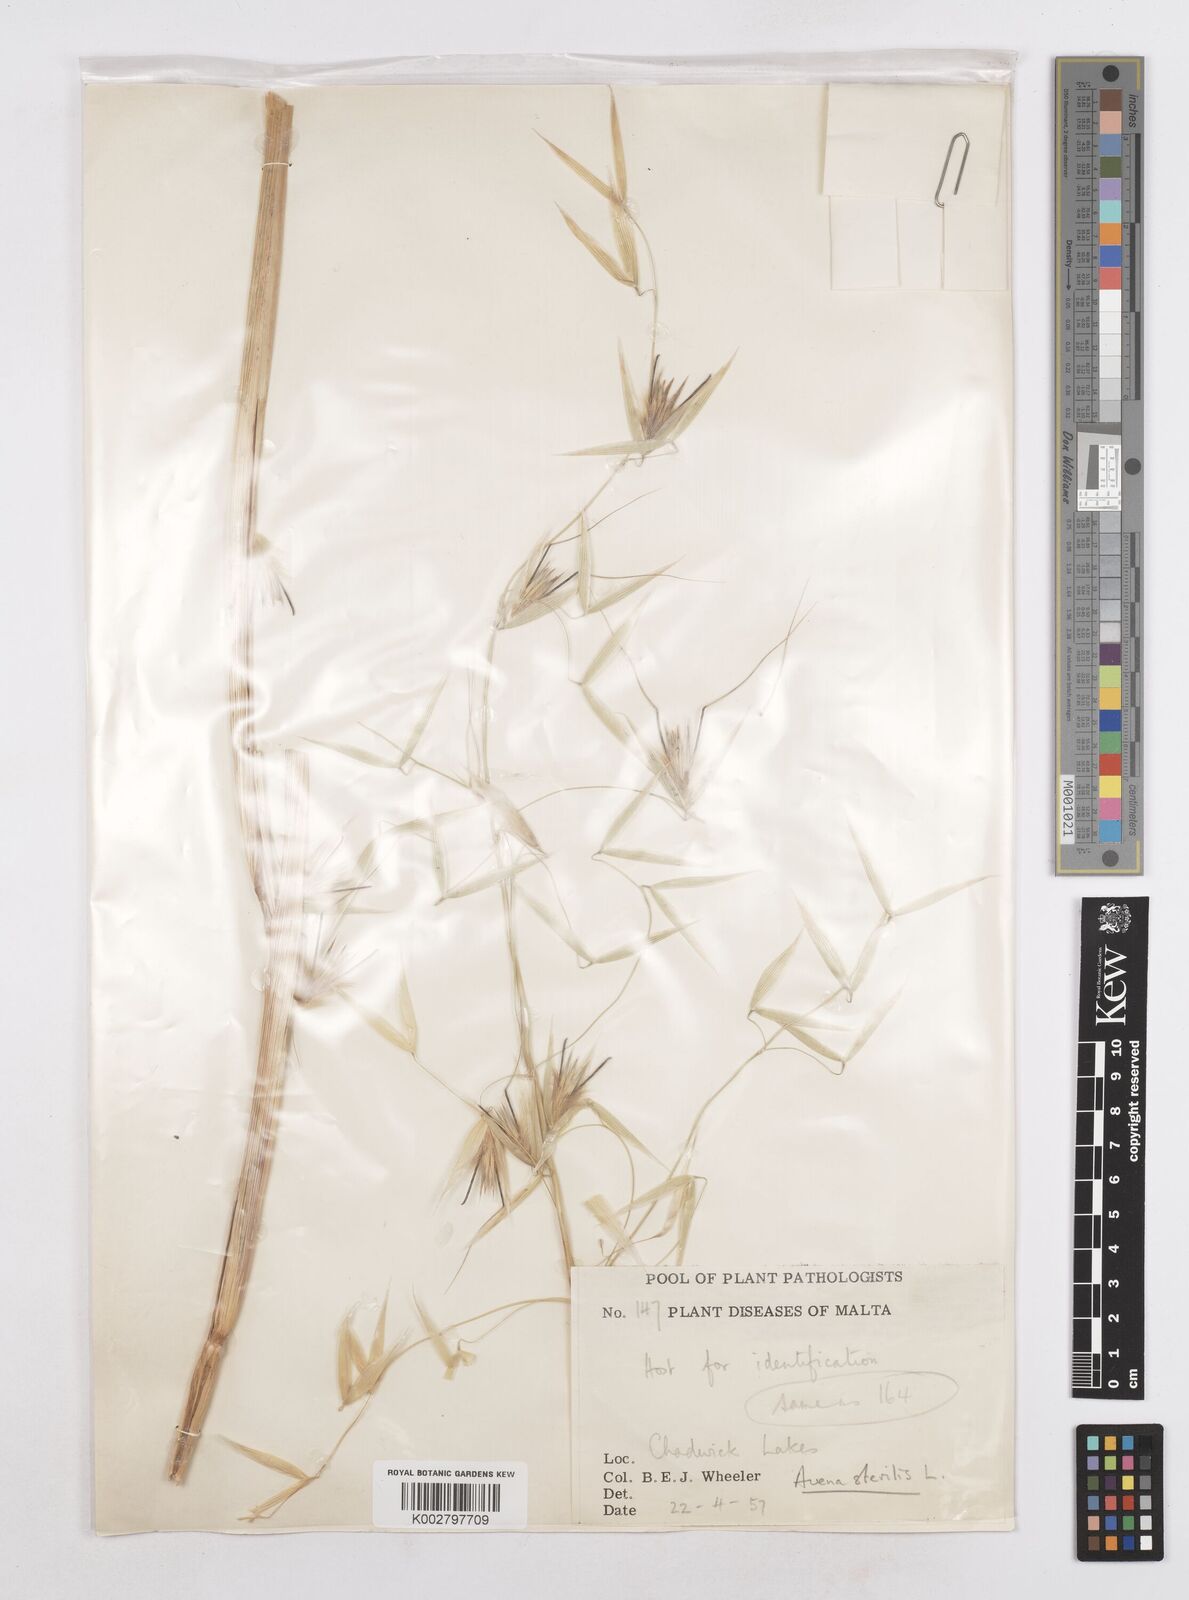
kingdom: Plantae
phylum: Tracheophyta
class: Liliopsida
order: Poales
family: Poaceae
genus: Avena
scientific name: Avena sterilis
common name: Animated oat
